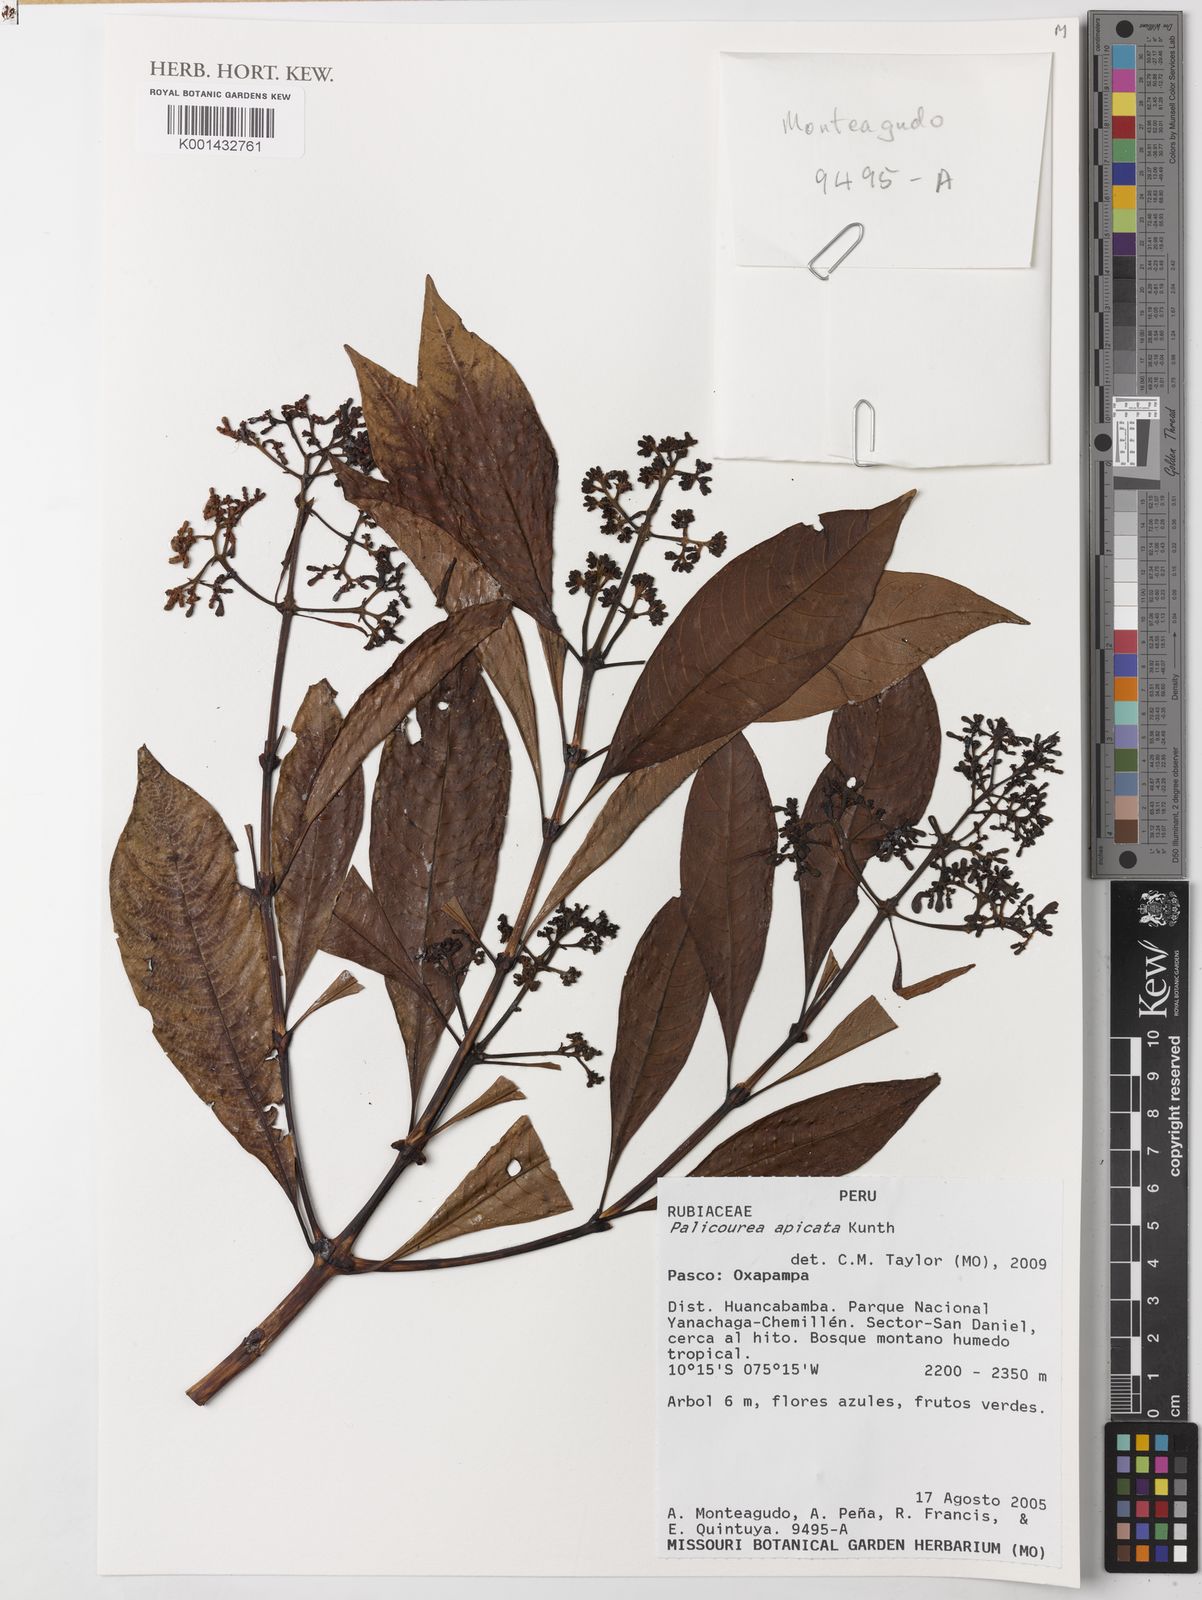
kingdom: Plantae
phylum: Tracheophyta
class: Magnoliopsida
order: Gentianales
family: Rubiaceae
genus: Palicourea
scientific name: Palicourea apicata
